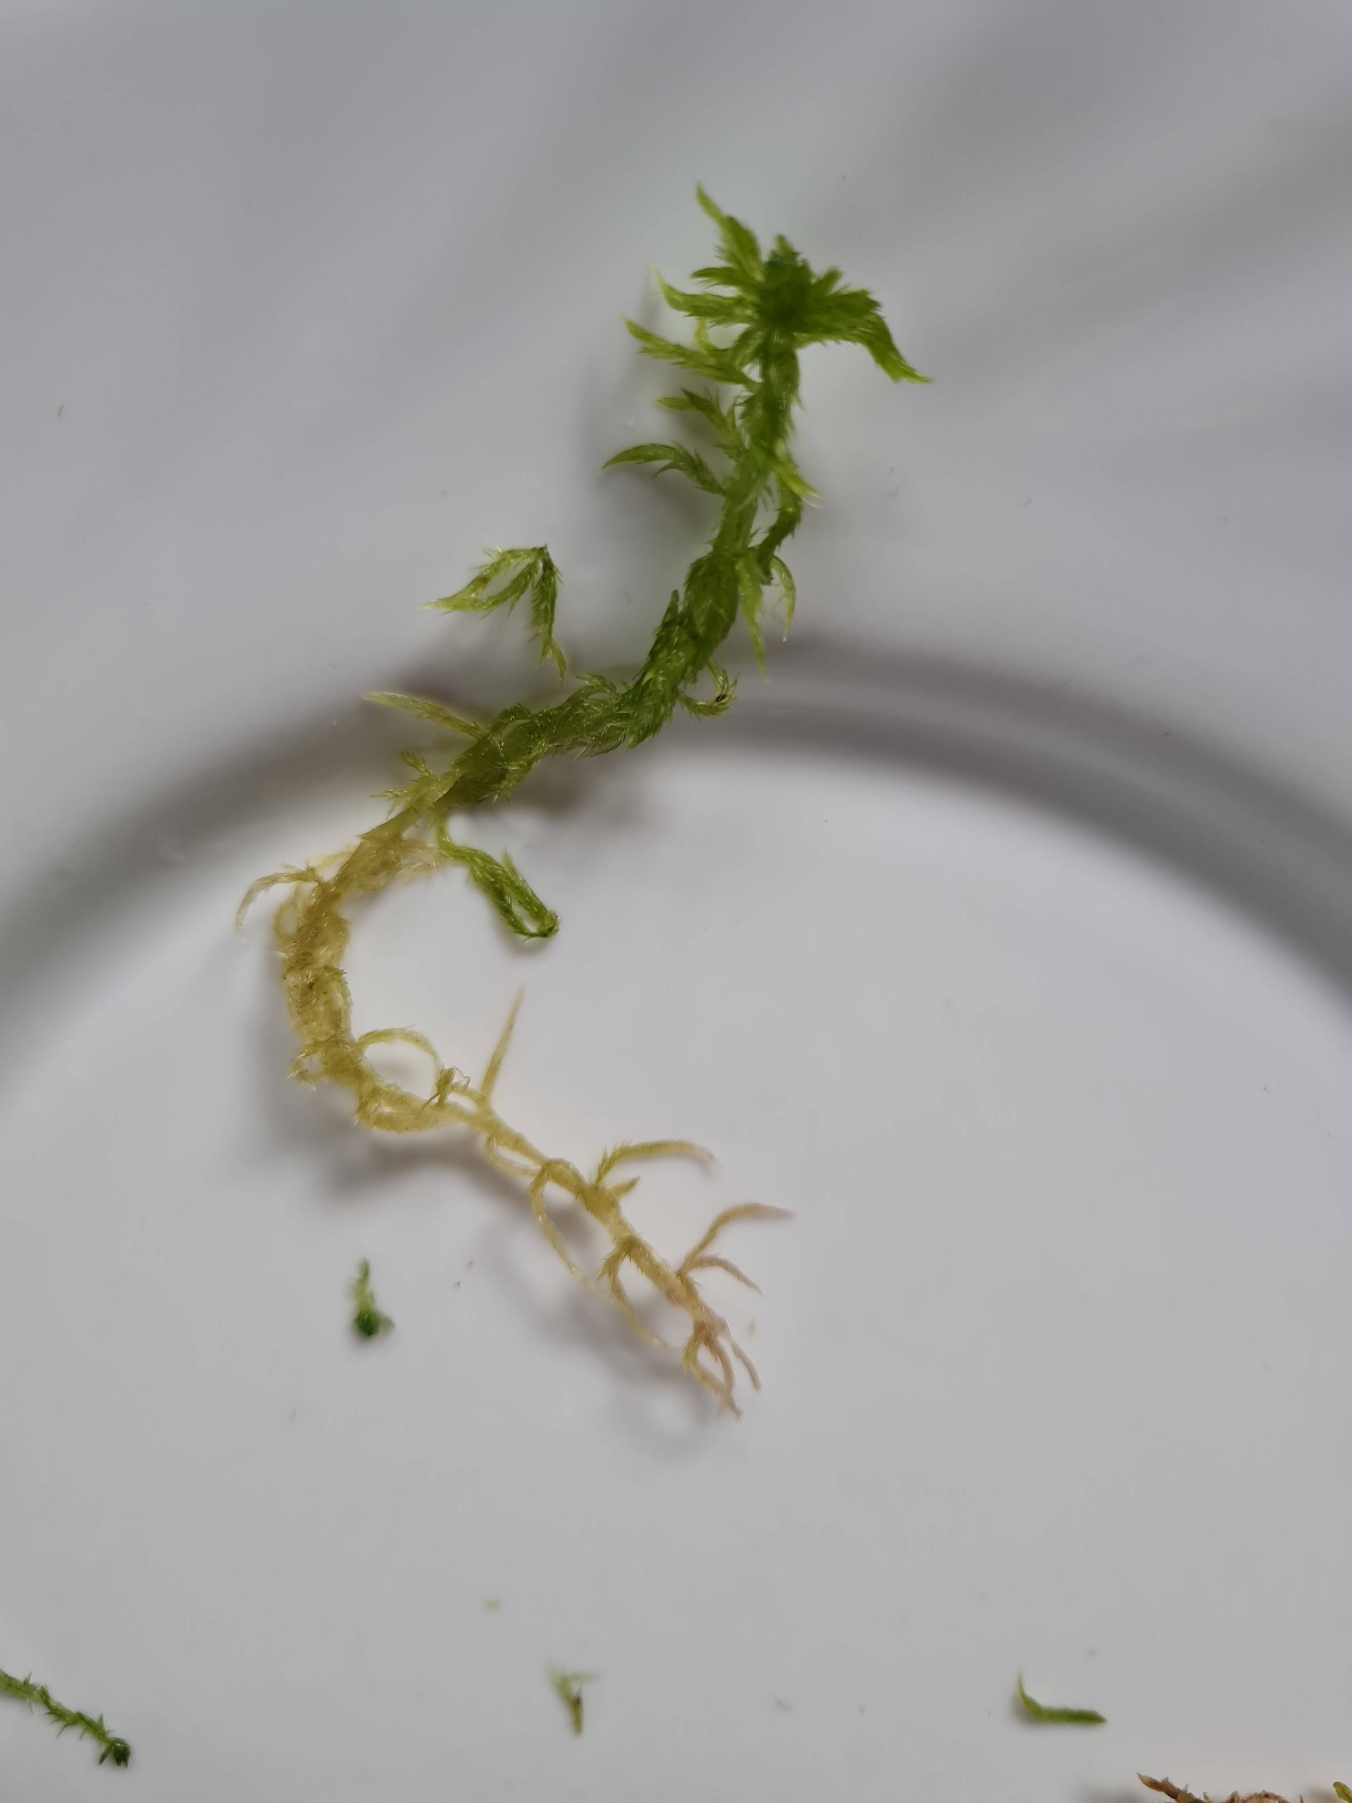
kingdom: Plantae
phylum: Bryophyta
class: Sphagnopsida
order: Sphagnales
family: Sphagnaceae
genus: Sphagnum
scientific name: Sphagnum cuspidatum
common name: Pjusket tørvemos
